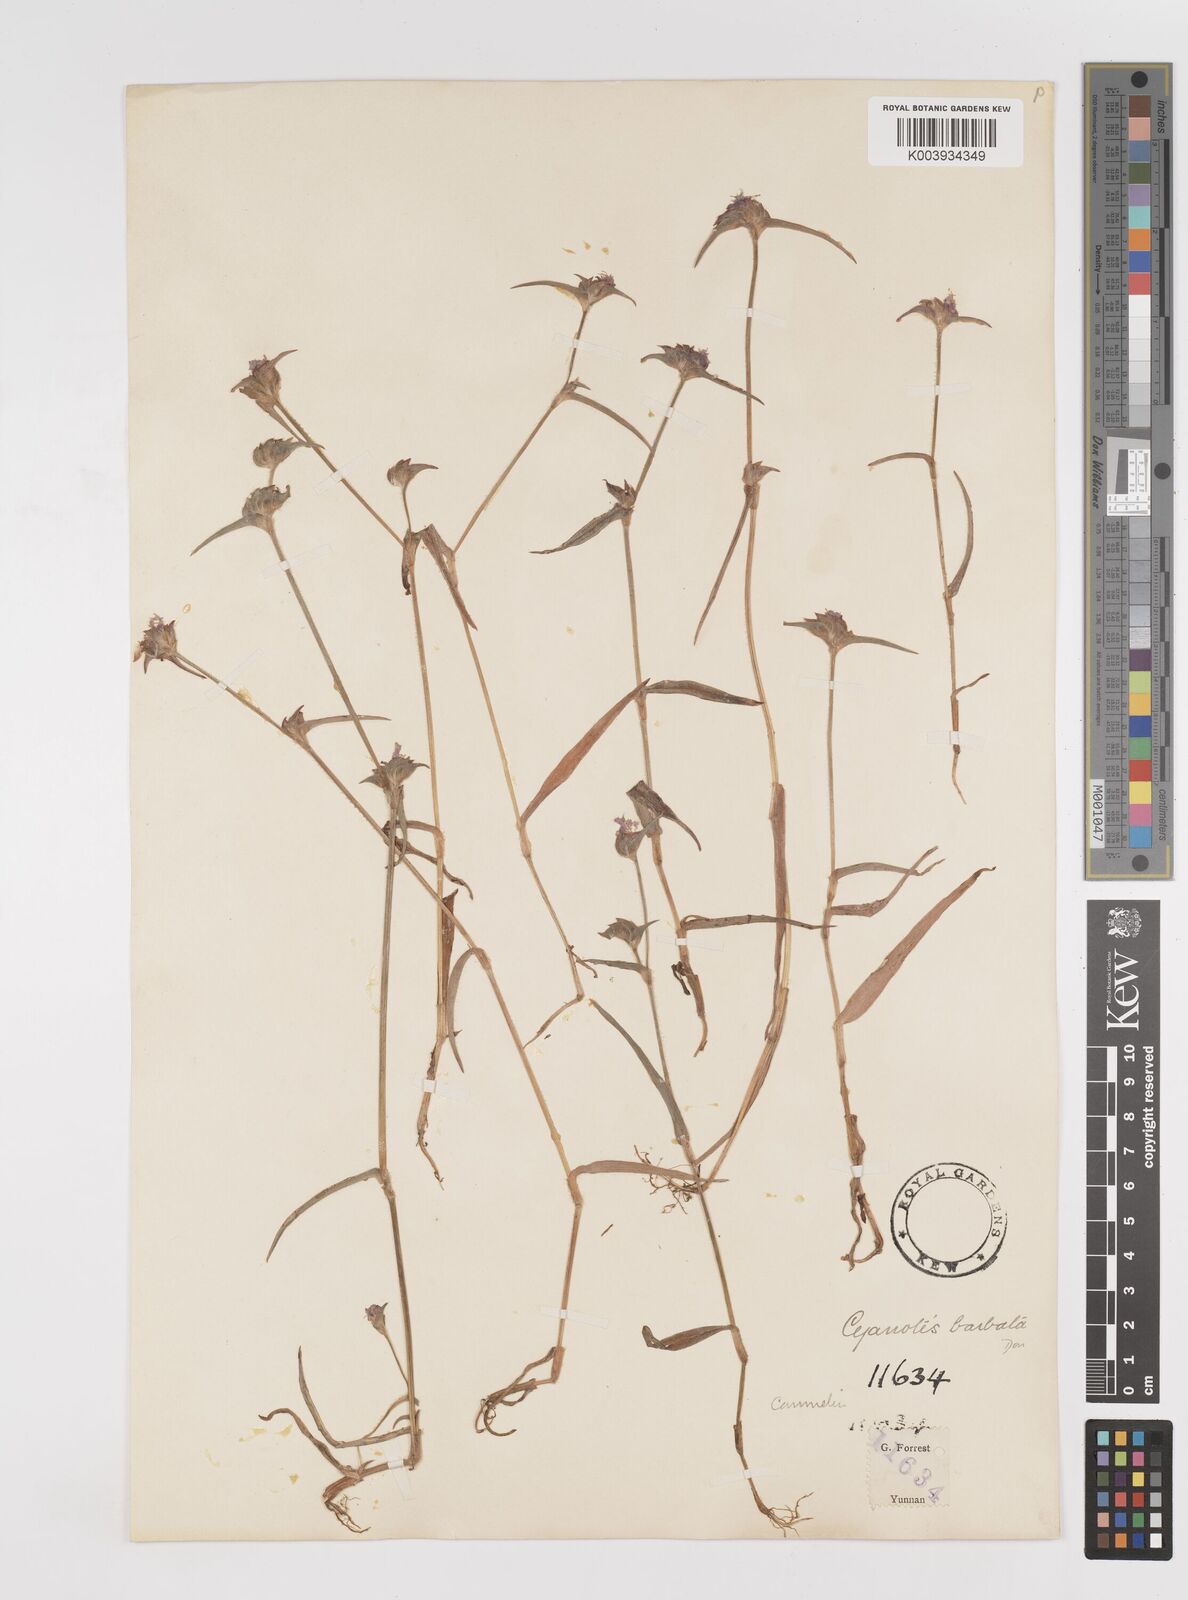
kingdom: Plantae
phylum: Tracheophyta
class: Liliopsida
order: Commelinales
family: Commelinaceae
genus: Cyanotis
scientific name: Cyanotis vaga
